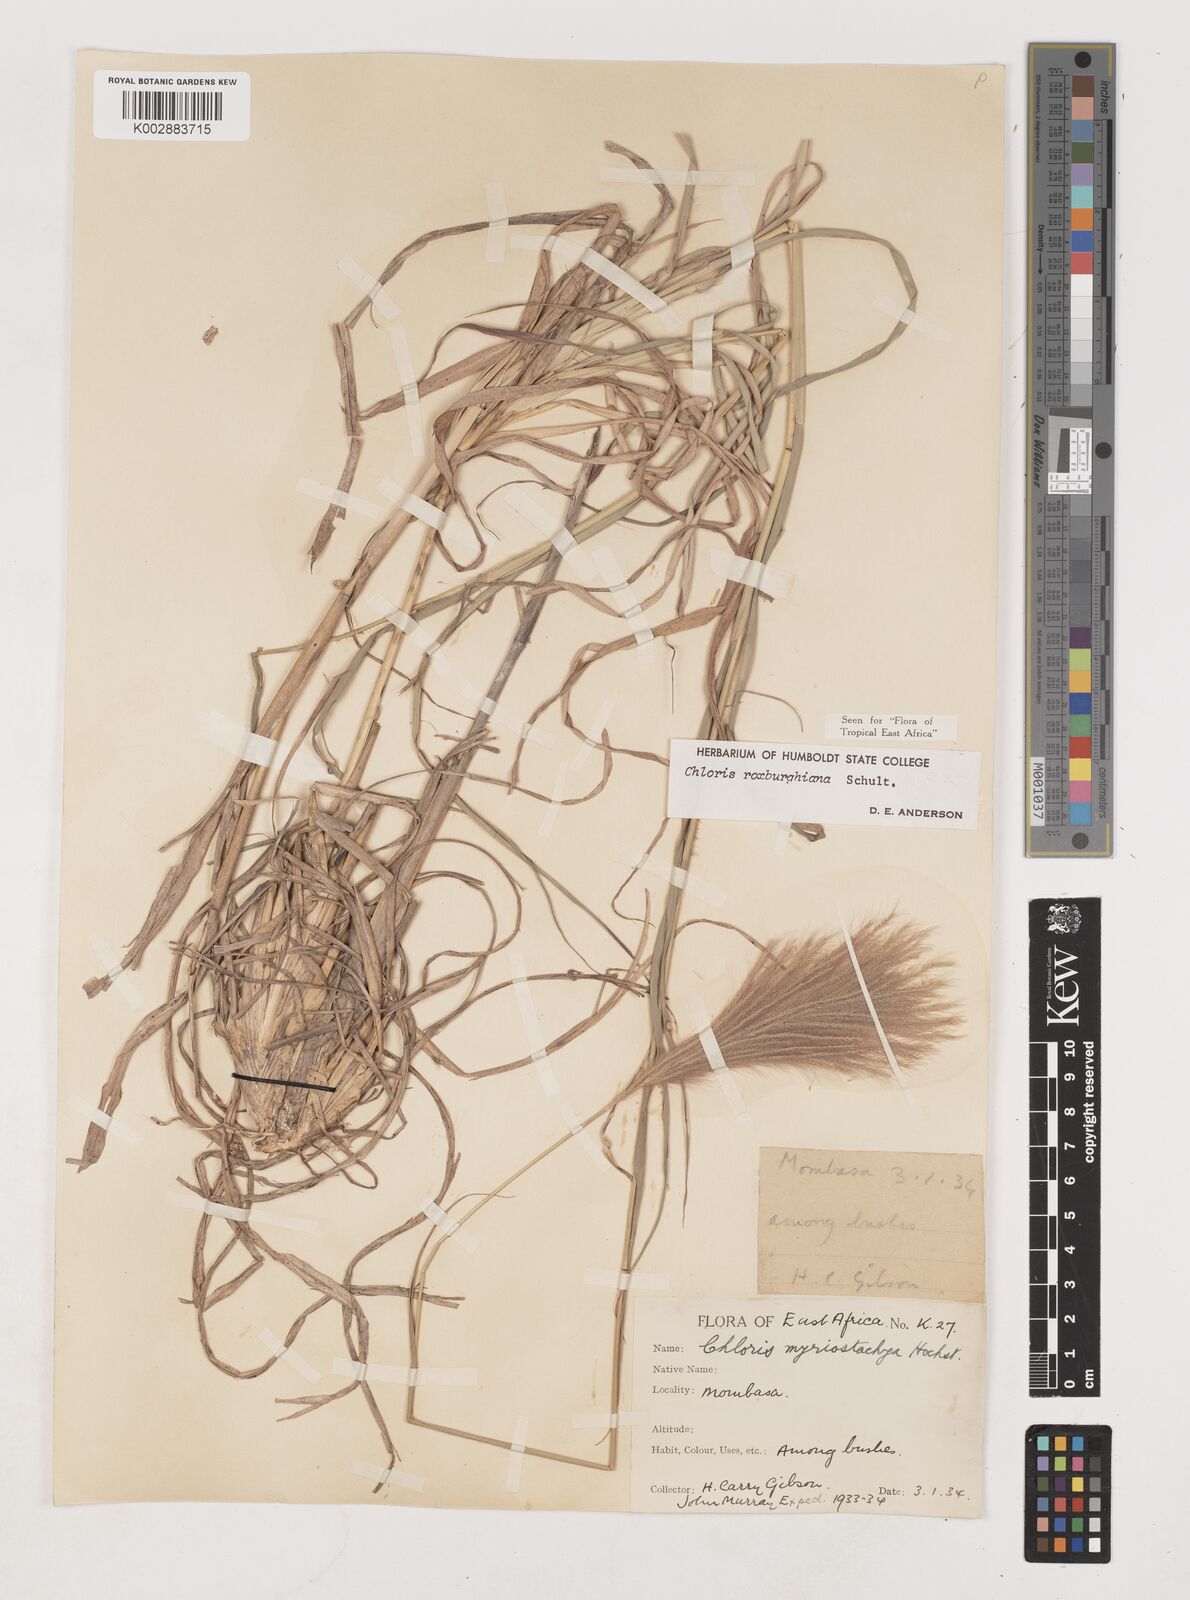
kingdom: Plantae
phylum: Tracheophyta
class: Liliopsida
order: Poales
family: Poaceae
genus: Tetrapogon
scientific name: Tetrapogon roxburghiana
